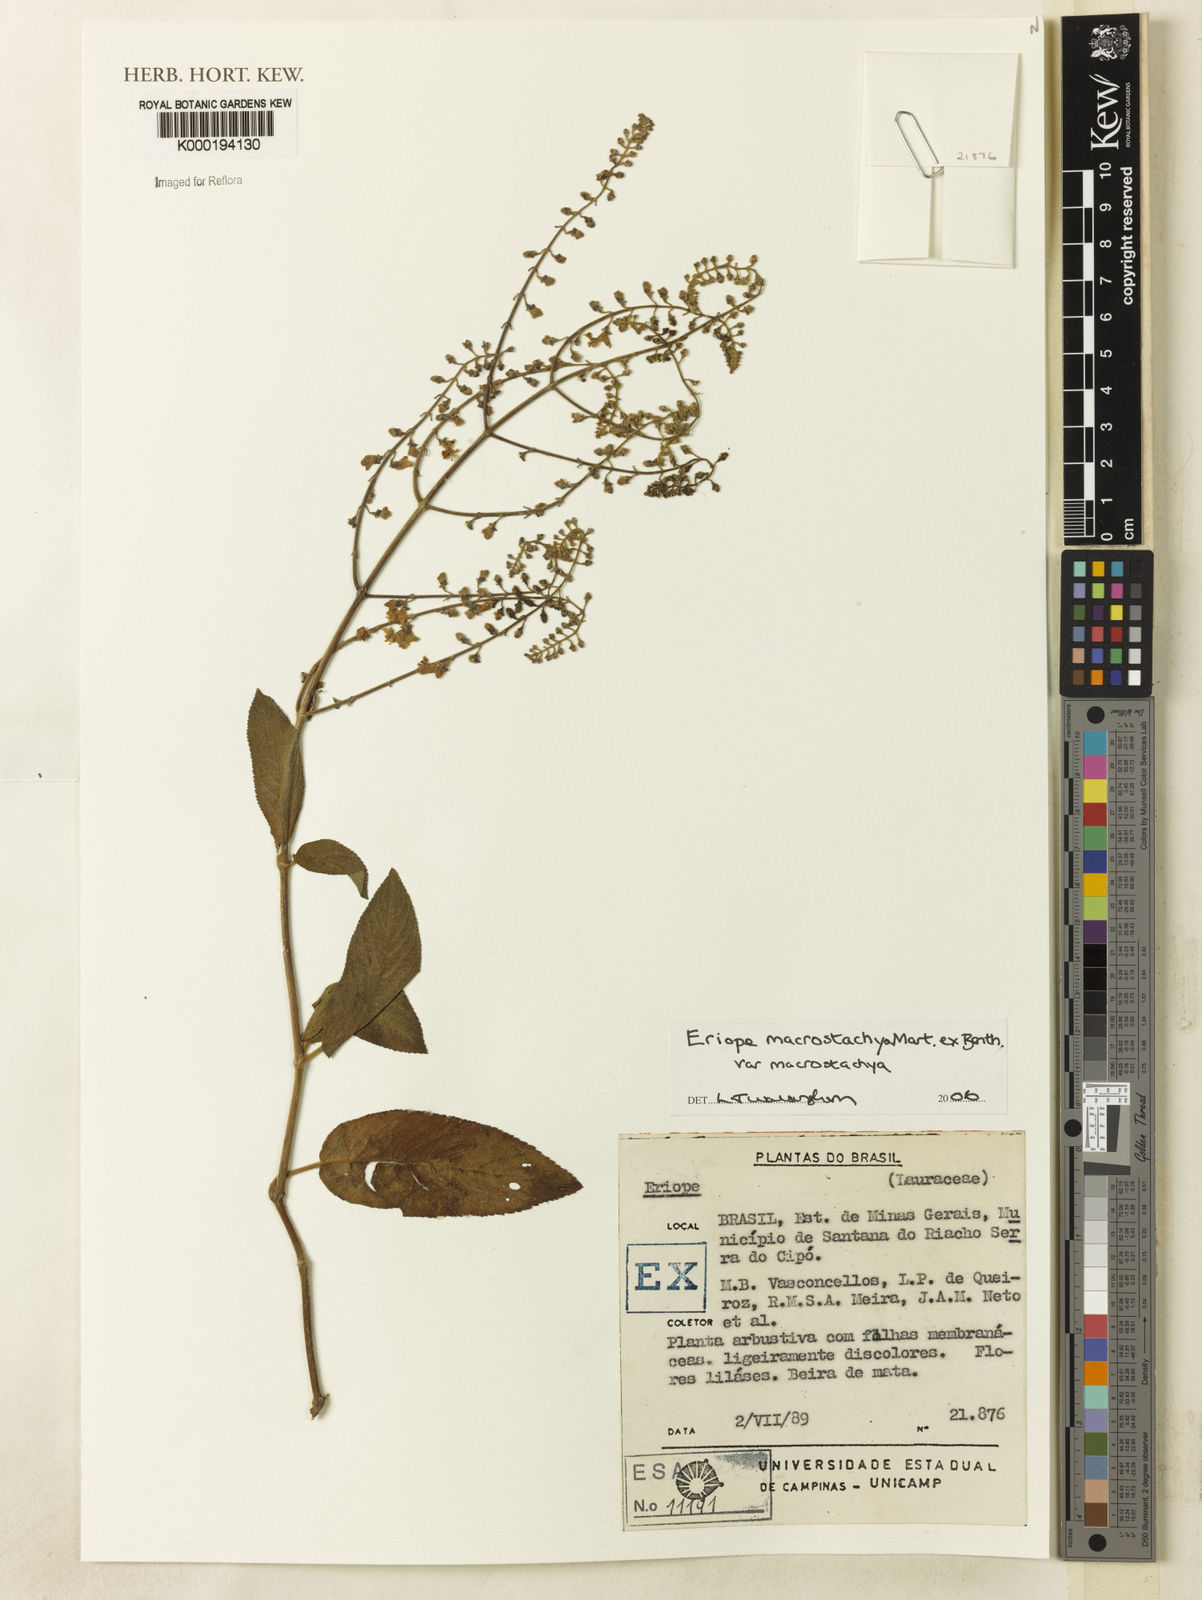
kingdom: Plantae
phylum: Tracheophyta
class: Magnoliopsida
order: Lamiales
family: Lamiaceae
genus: Eriope
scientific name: Eriope macrostachya
